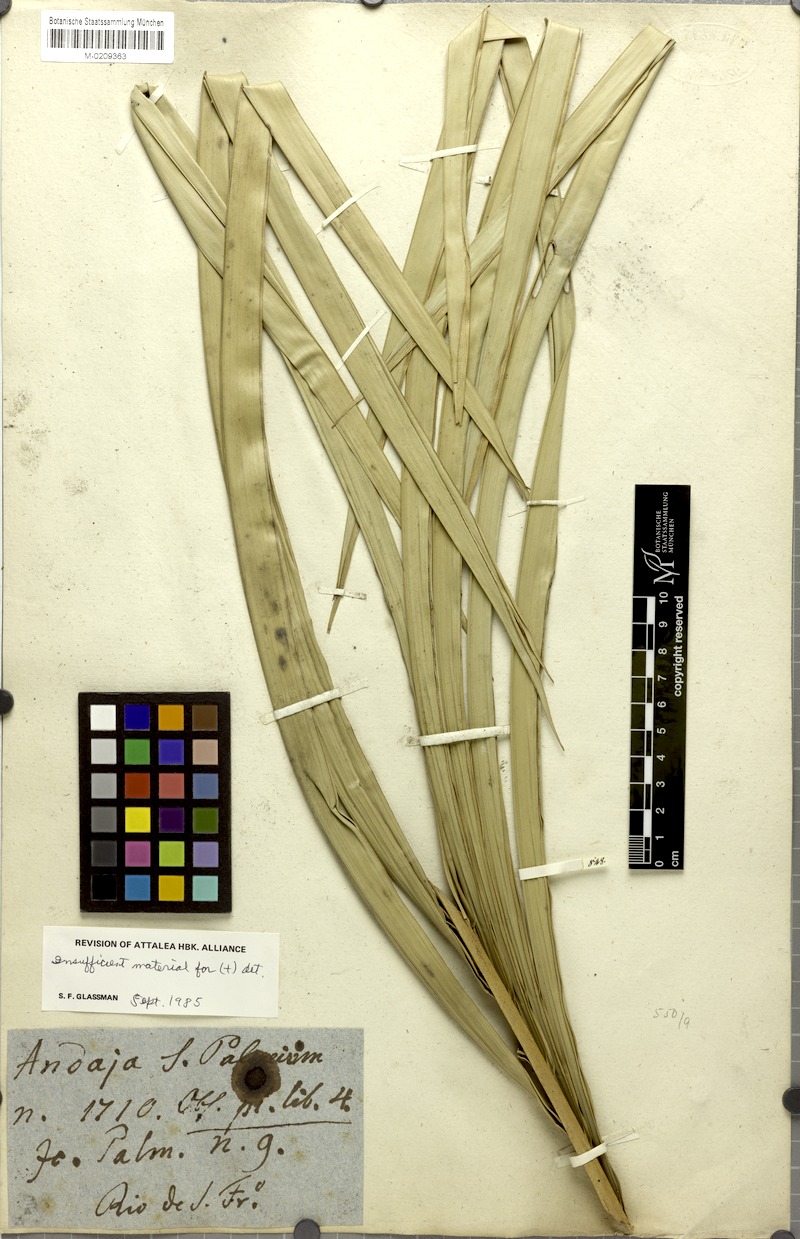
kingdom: Plantae
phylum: Tracheophyta
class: Liliopsida
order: Arecales
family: Arecaceae
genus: Attalea
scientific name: Attalea funifera
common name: Piassava palm
